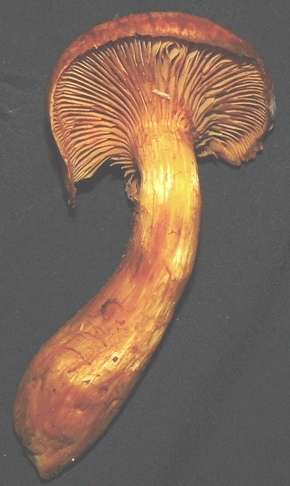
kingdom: Fungi
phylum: Basidiomycota
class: Agaricomycetes
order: Agaricales
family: Hymenogastraceae
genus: Gymnopilus
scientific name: Gymnopilus spectabilis
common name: fibret flammehat
